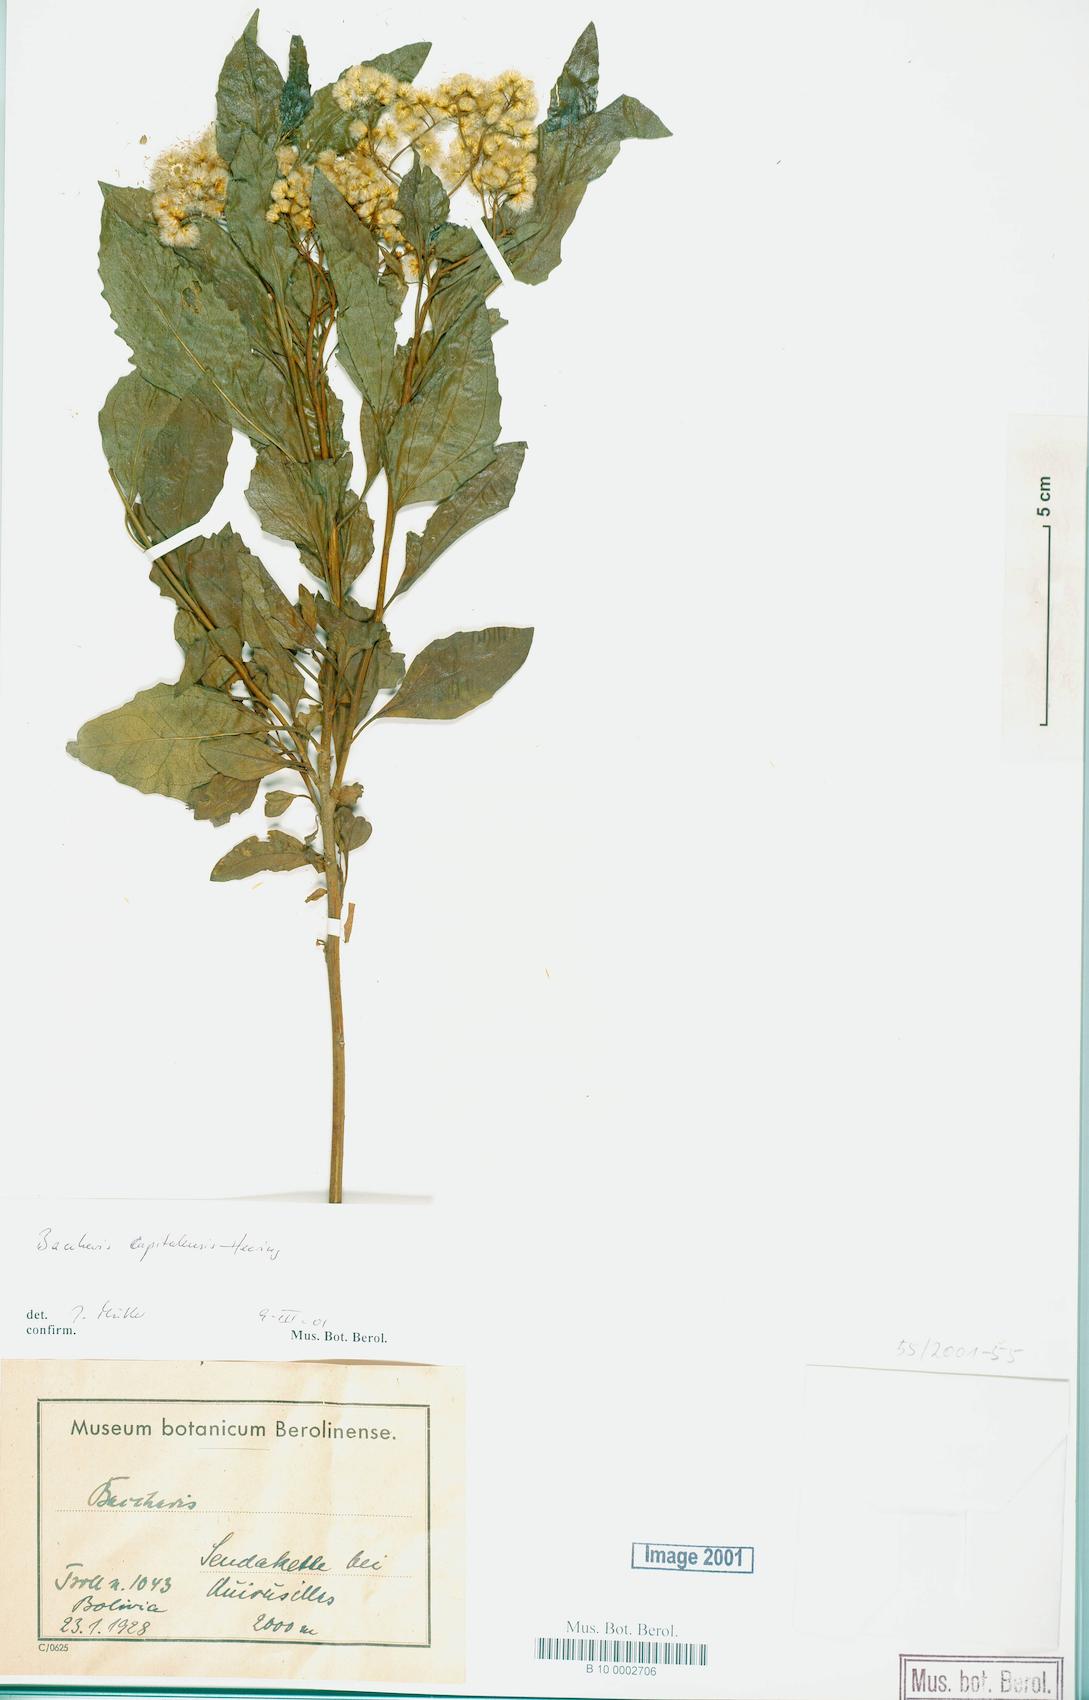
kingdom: Plantae
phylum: Tracheophyta
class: Magnoliopsida
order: Asterales
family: Asteraceae
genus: Baccharis
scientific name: Baccharis capitalensis
